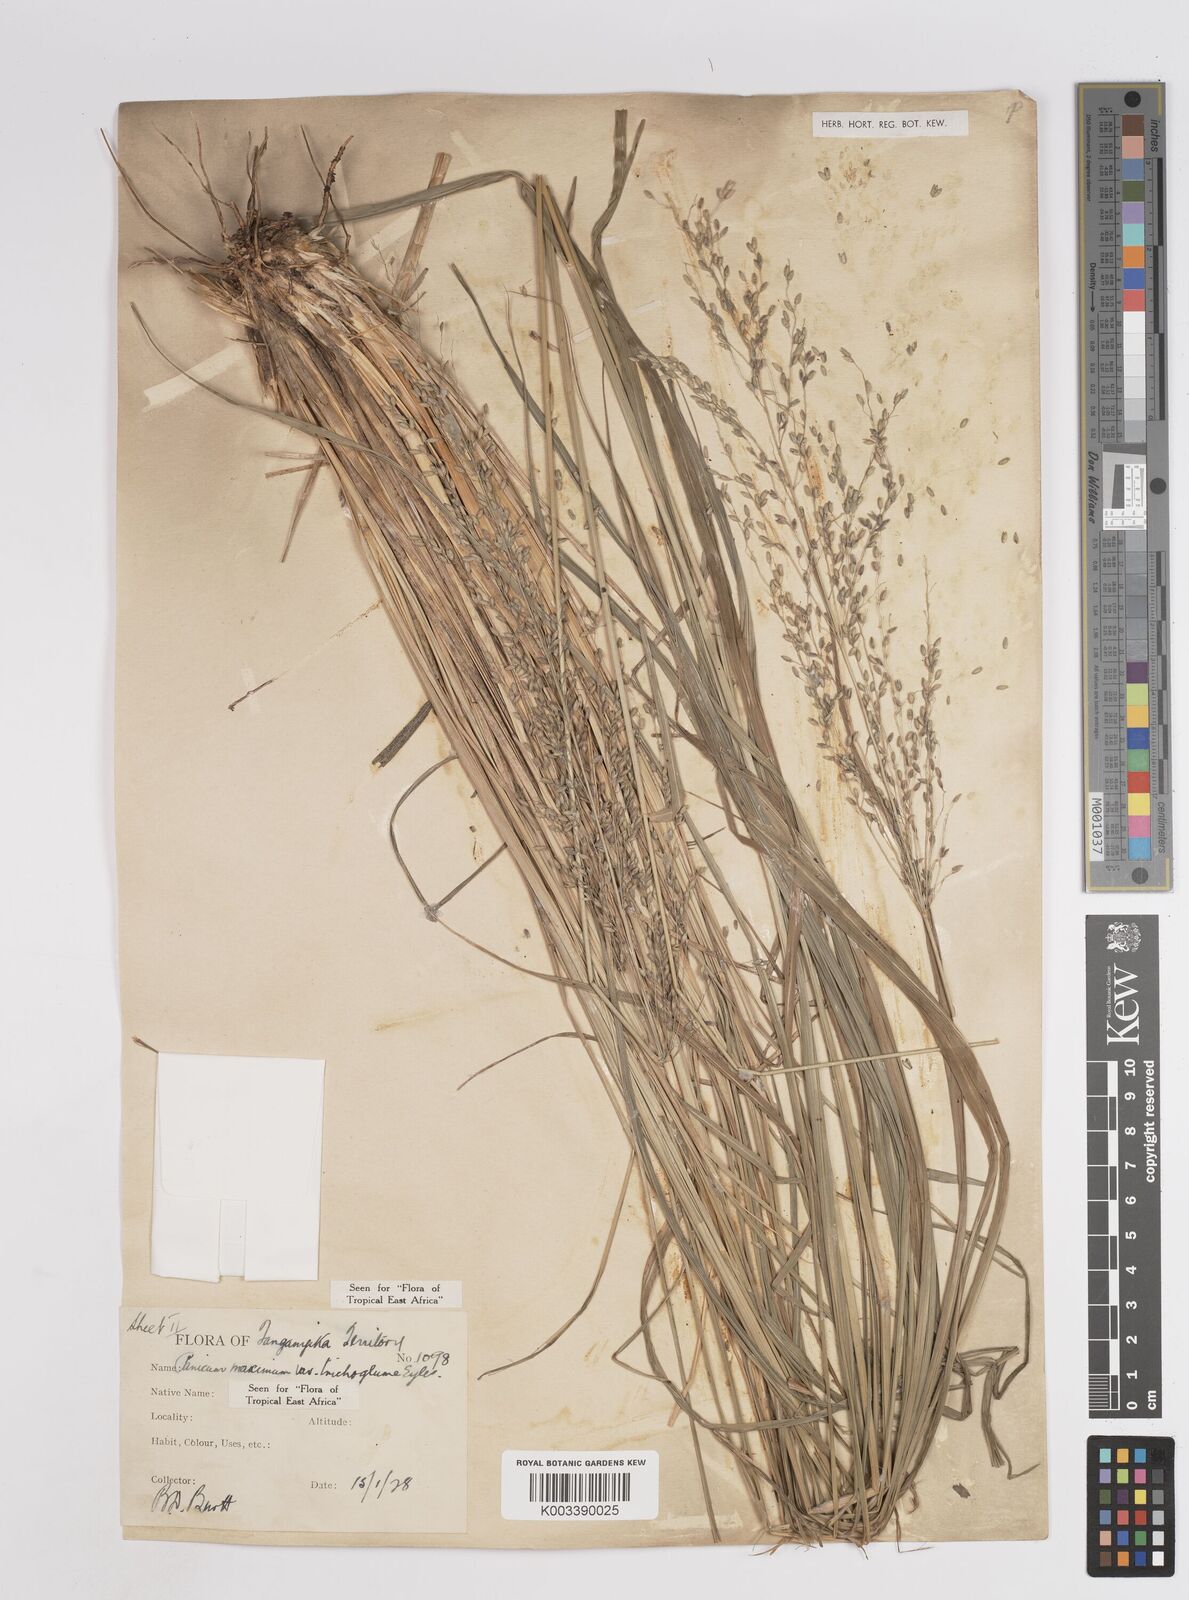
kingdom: Plantae
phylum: Tracheophyta
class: Liliopsida
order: Poales
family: Poaceae
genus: Megathyrsus
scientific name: Megathyrsus maximus
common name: Guineagrass
